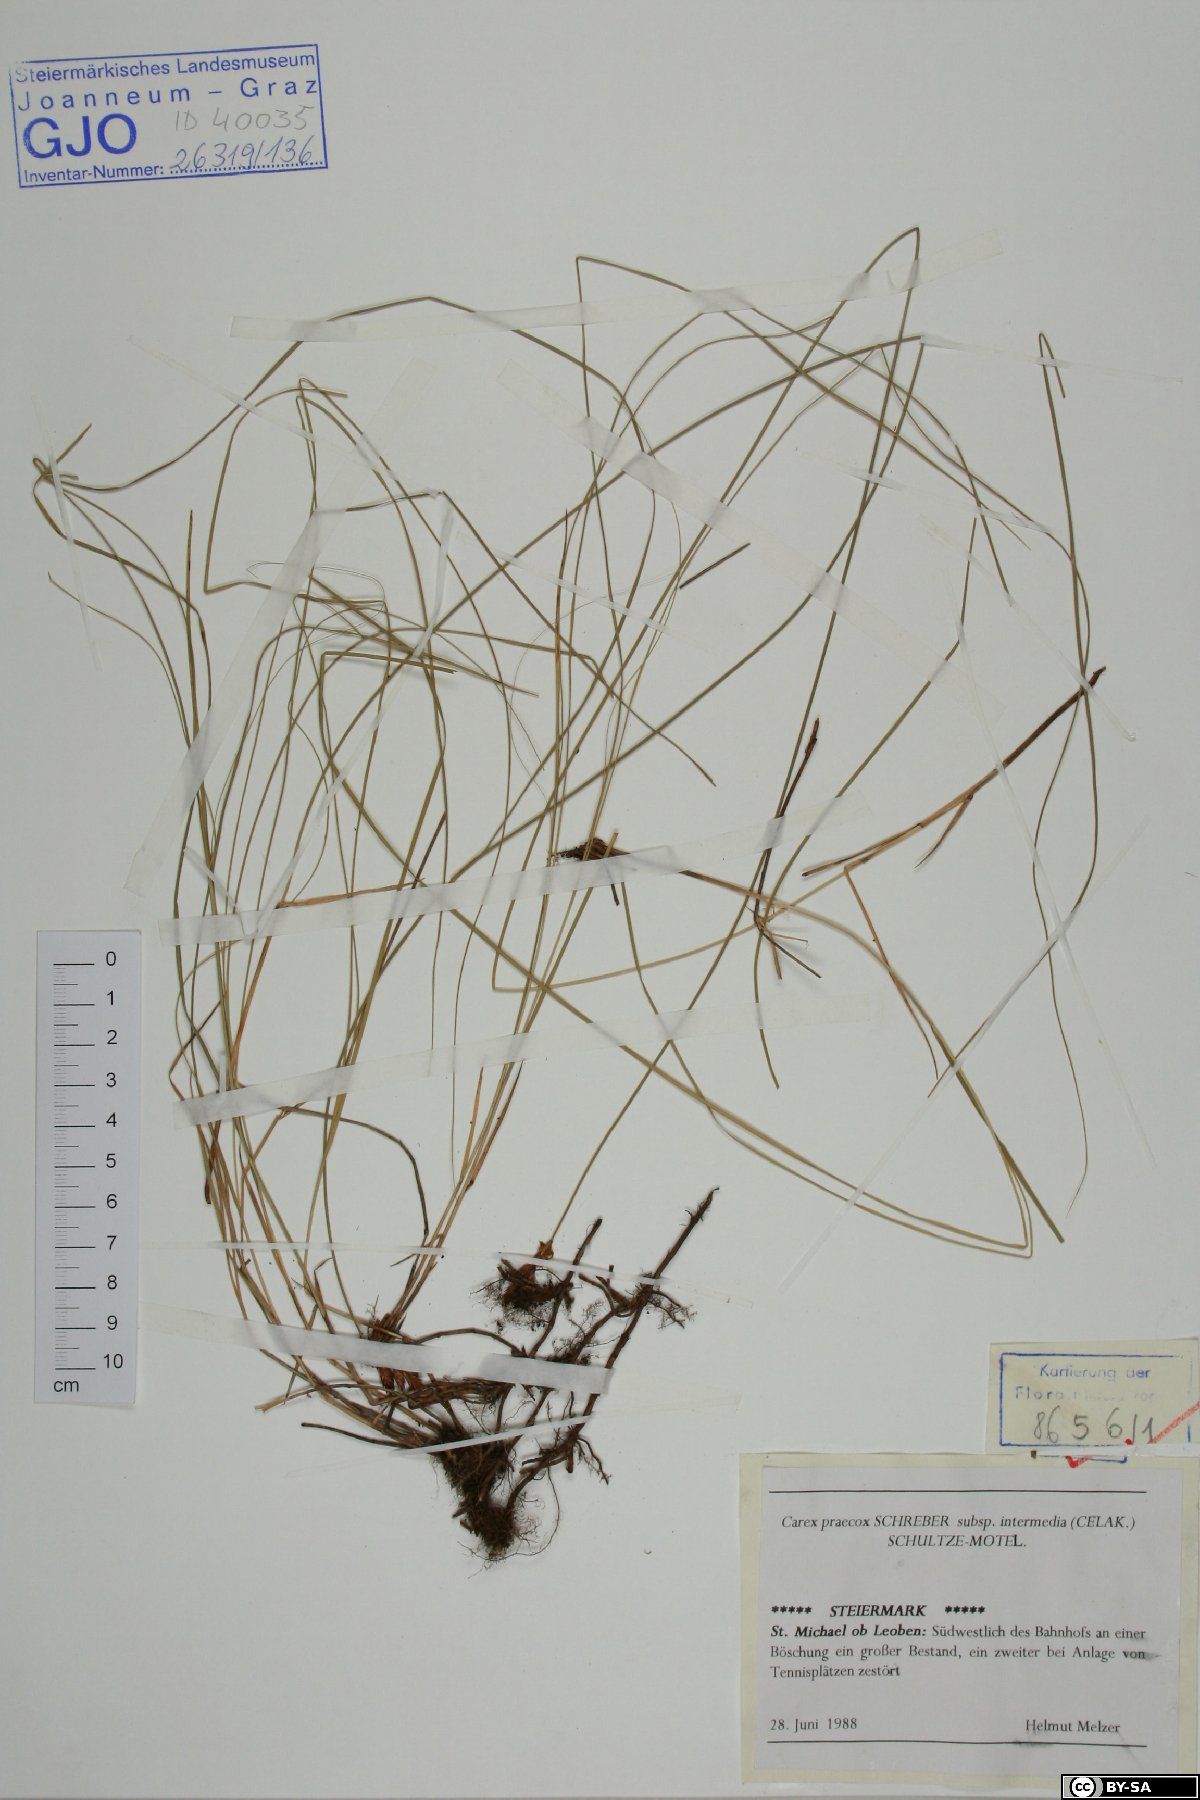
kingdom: Plantae
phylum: Tracheophyta
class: Liliopsida
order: Poales
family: Cyperaceae
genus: Carex
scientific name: Carex curvata
